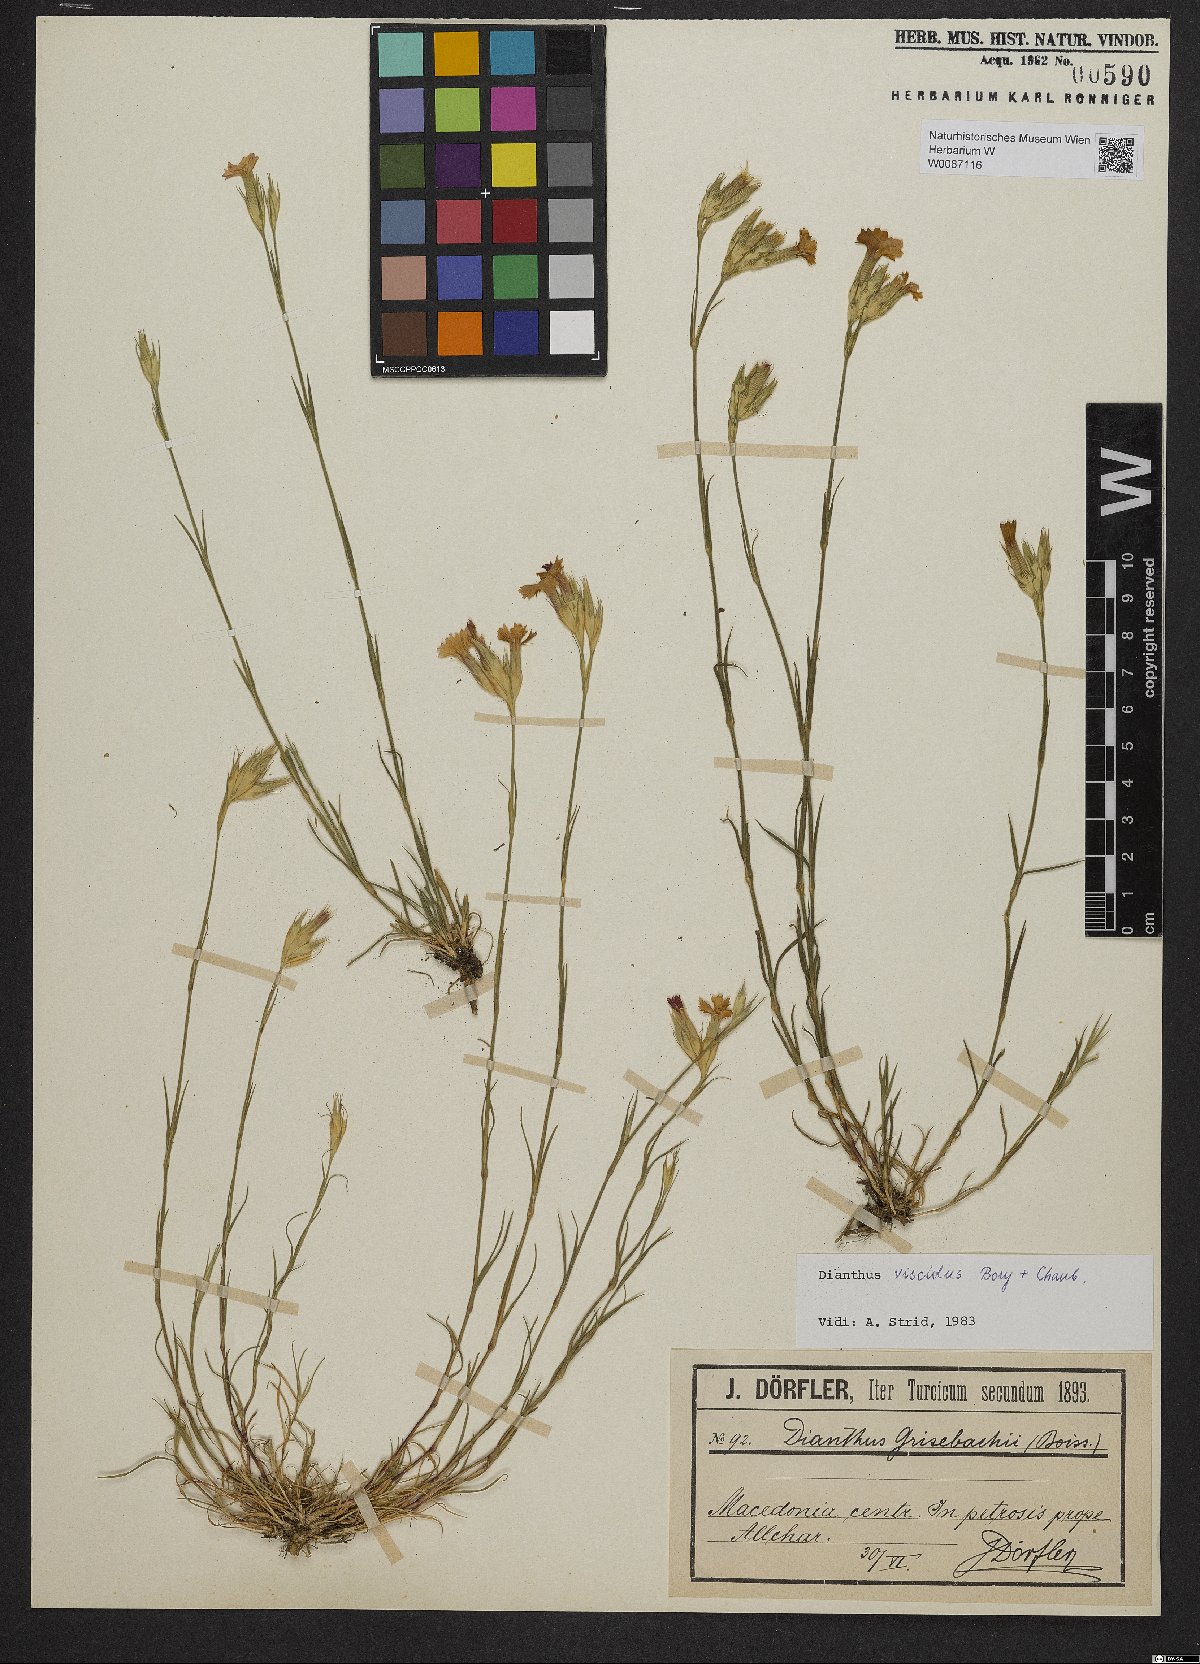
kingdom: Plantae
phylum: Tracheophyta
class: Magnoliopsida
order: Caryophyllales
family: Caryophyllaceae
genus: Dianthus
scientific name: Dianthus viscidus
